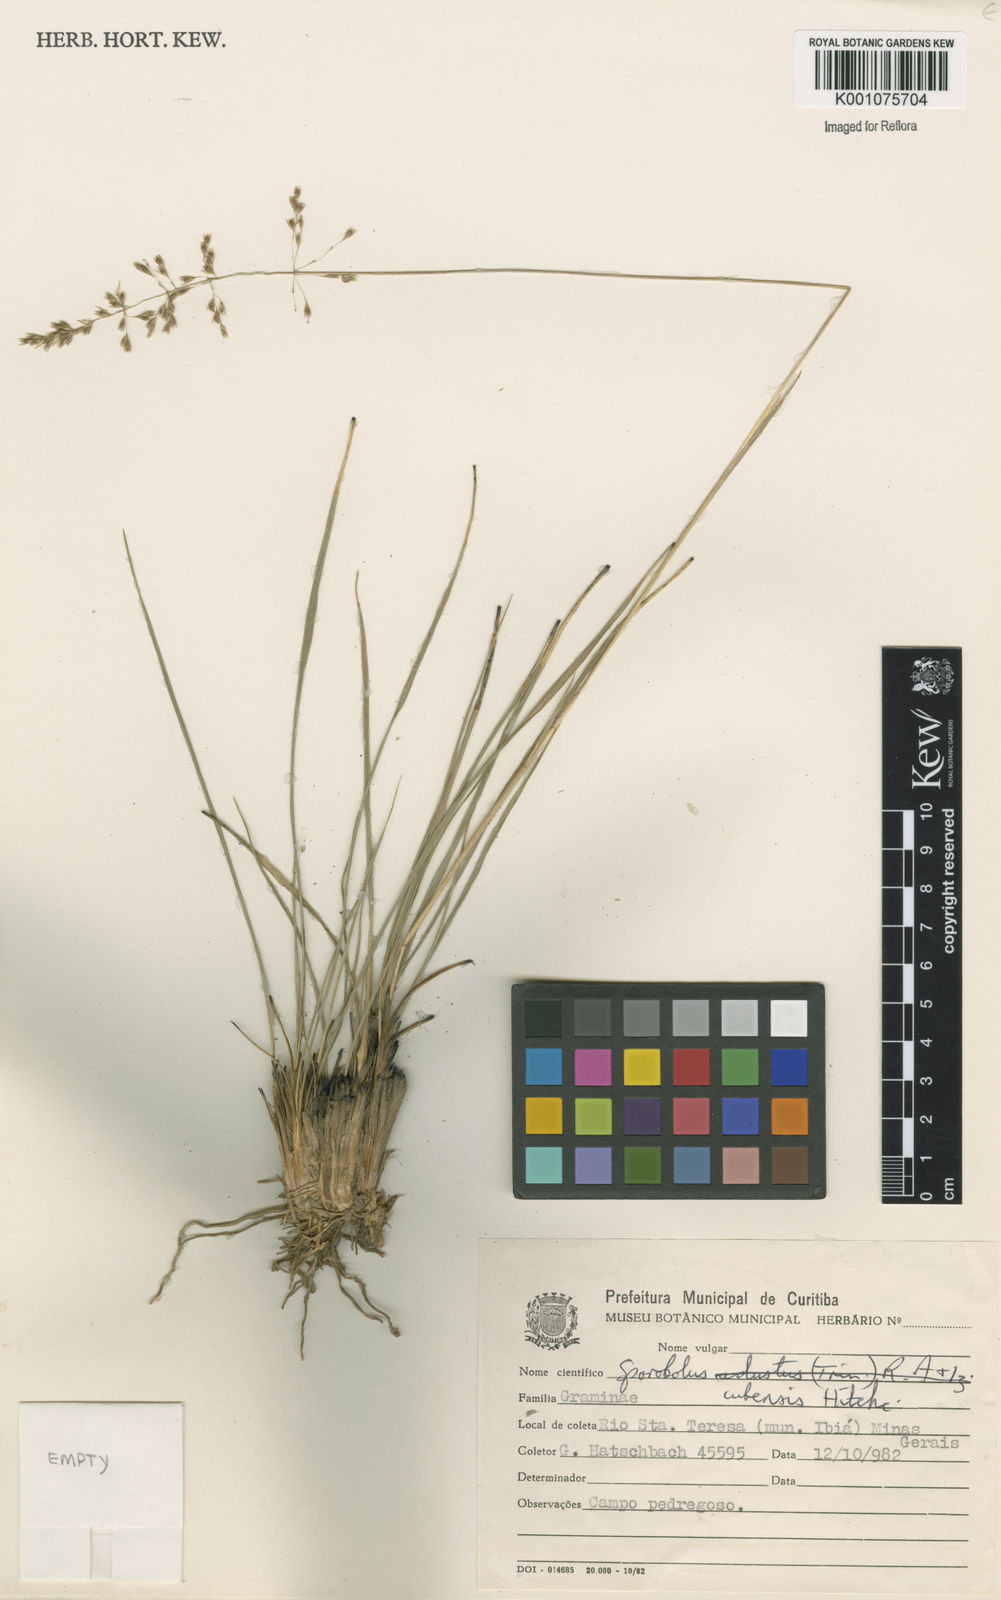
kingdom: Plantae
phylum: Tracheophyta
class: Liliopsida
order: Poales
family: Poaceae
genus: Sporobolus
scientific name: Sporobolus cubensis
